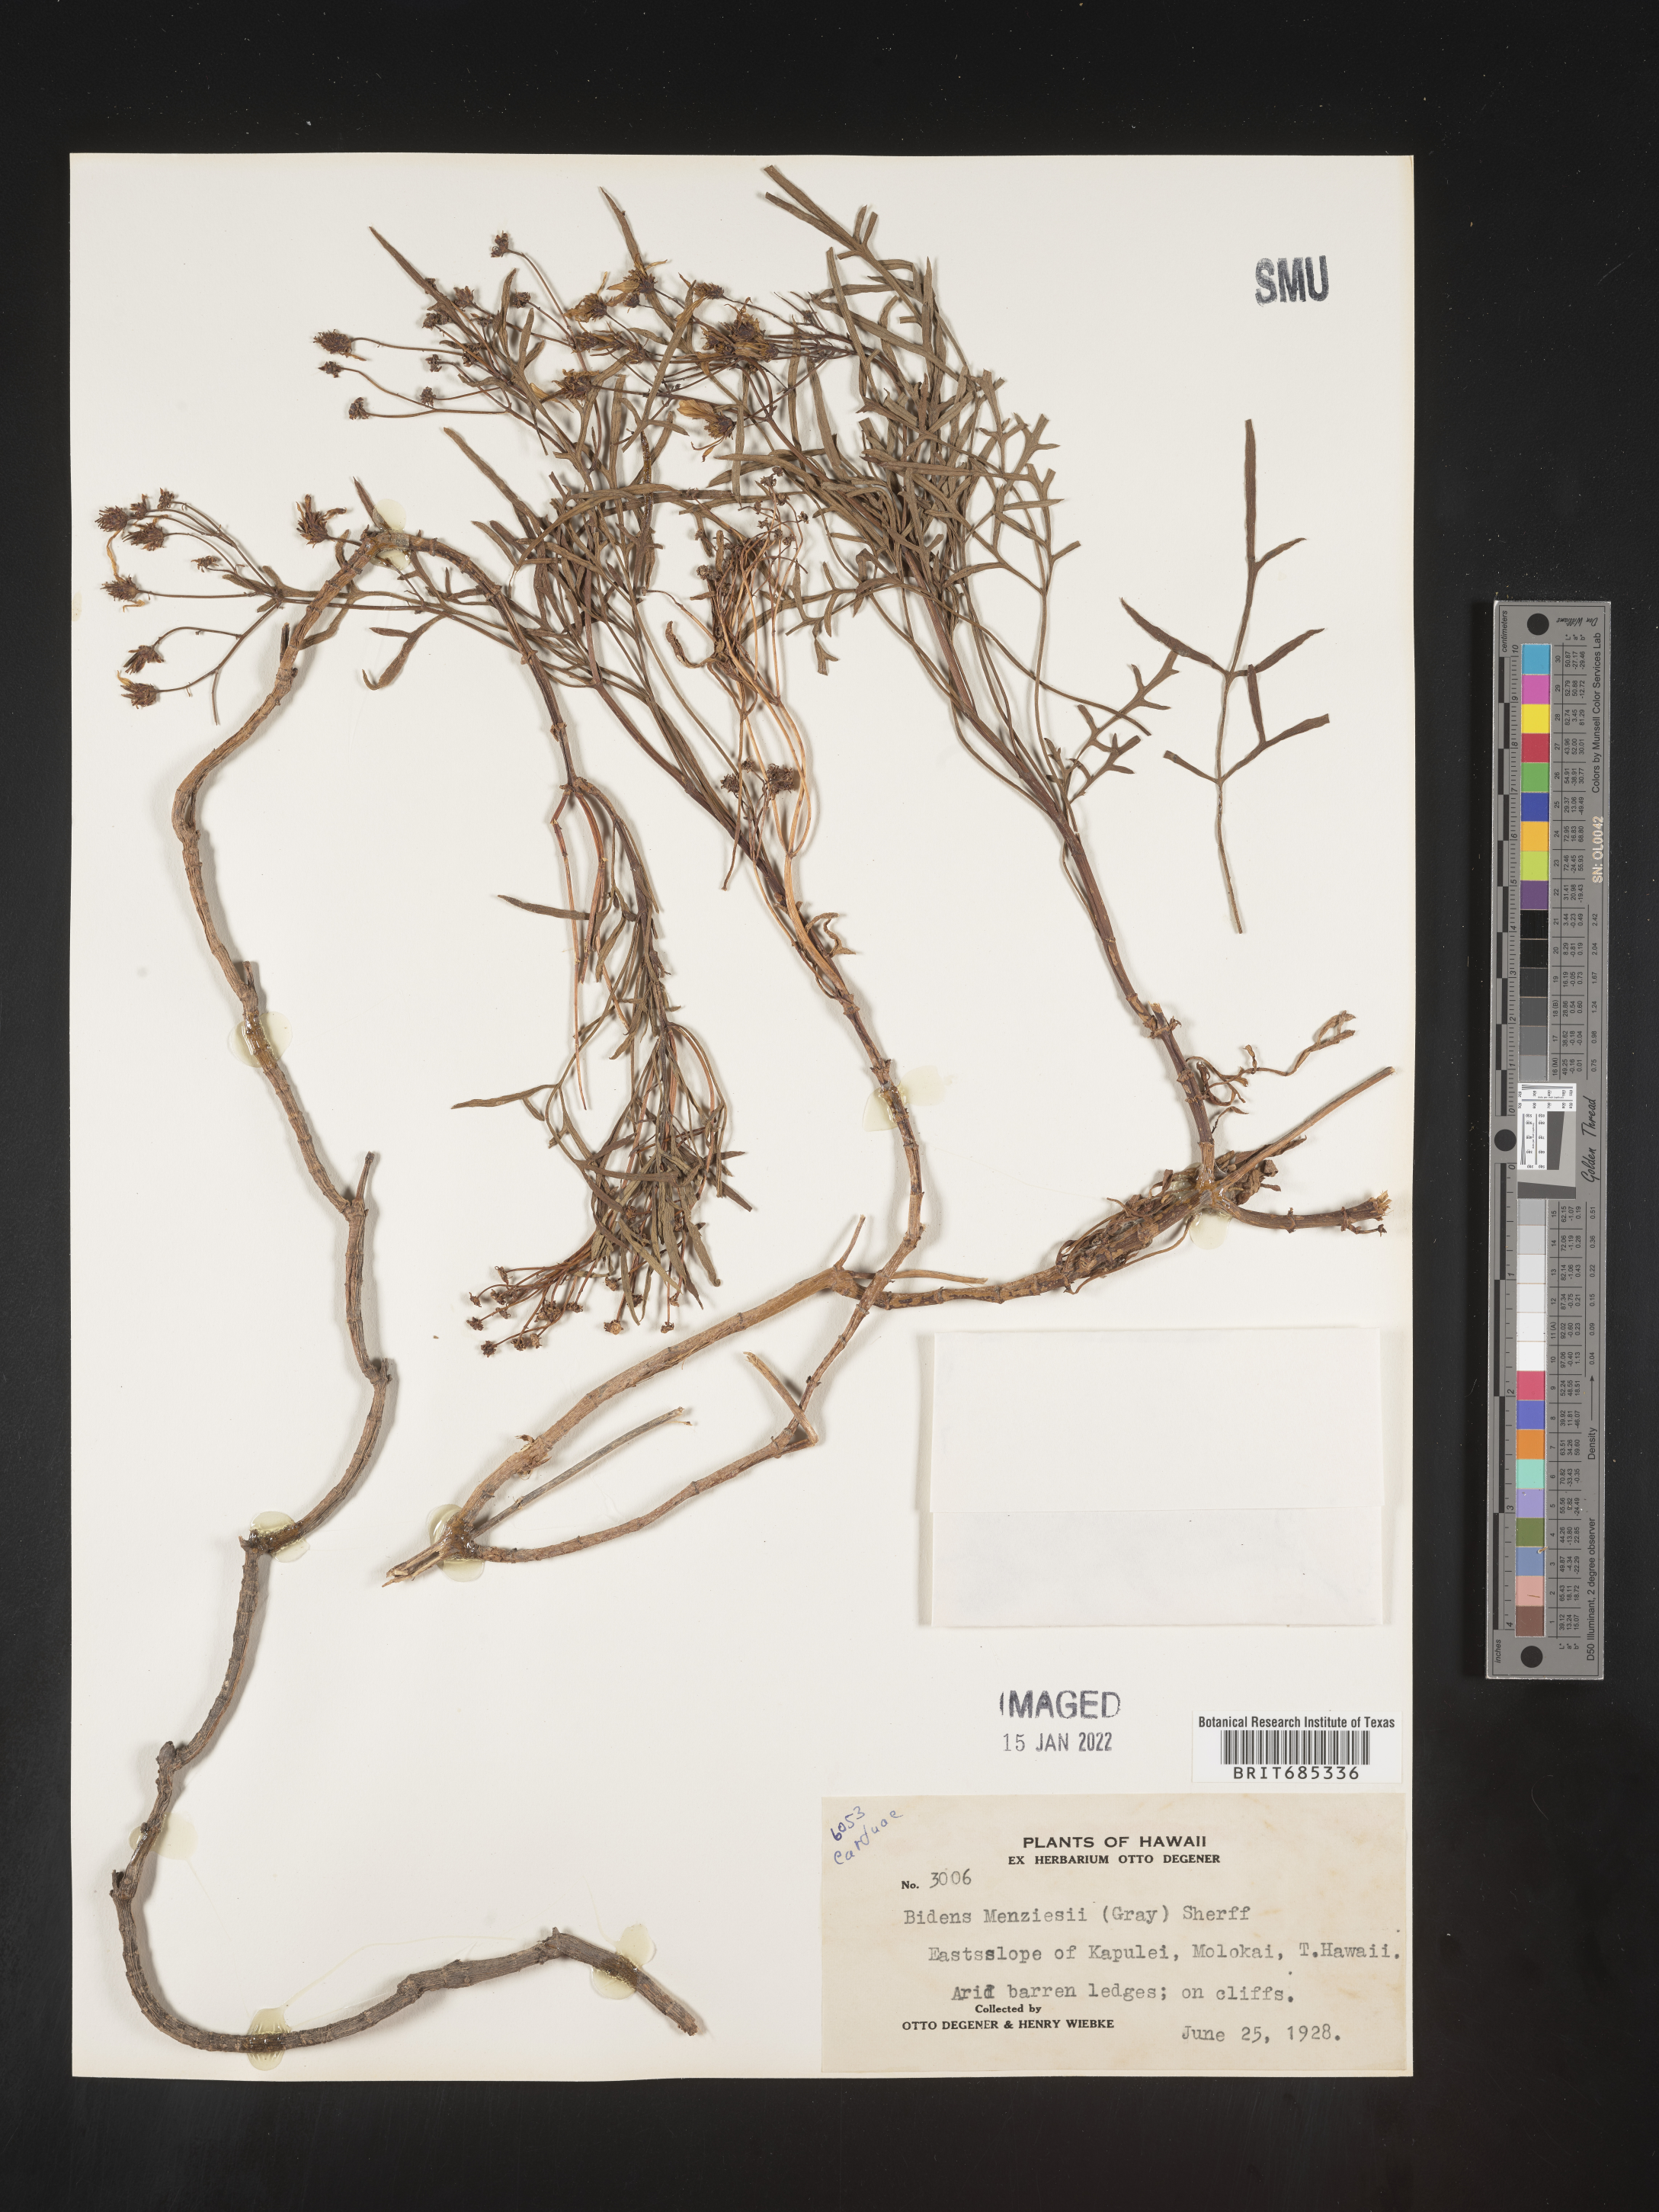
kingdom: Plantae
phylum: Tracheophyta
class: Magnoliopsida
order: Asterales
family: Asteraceae
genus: Bidens
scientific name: Bidens
